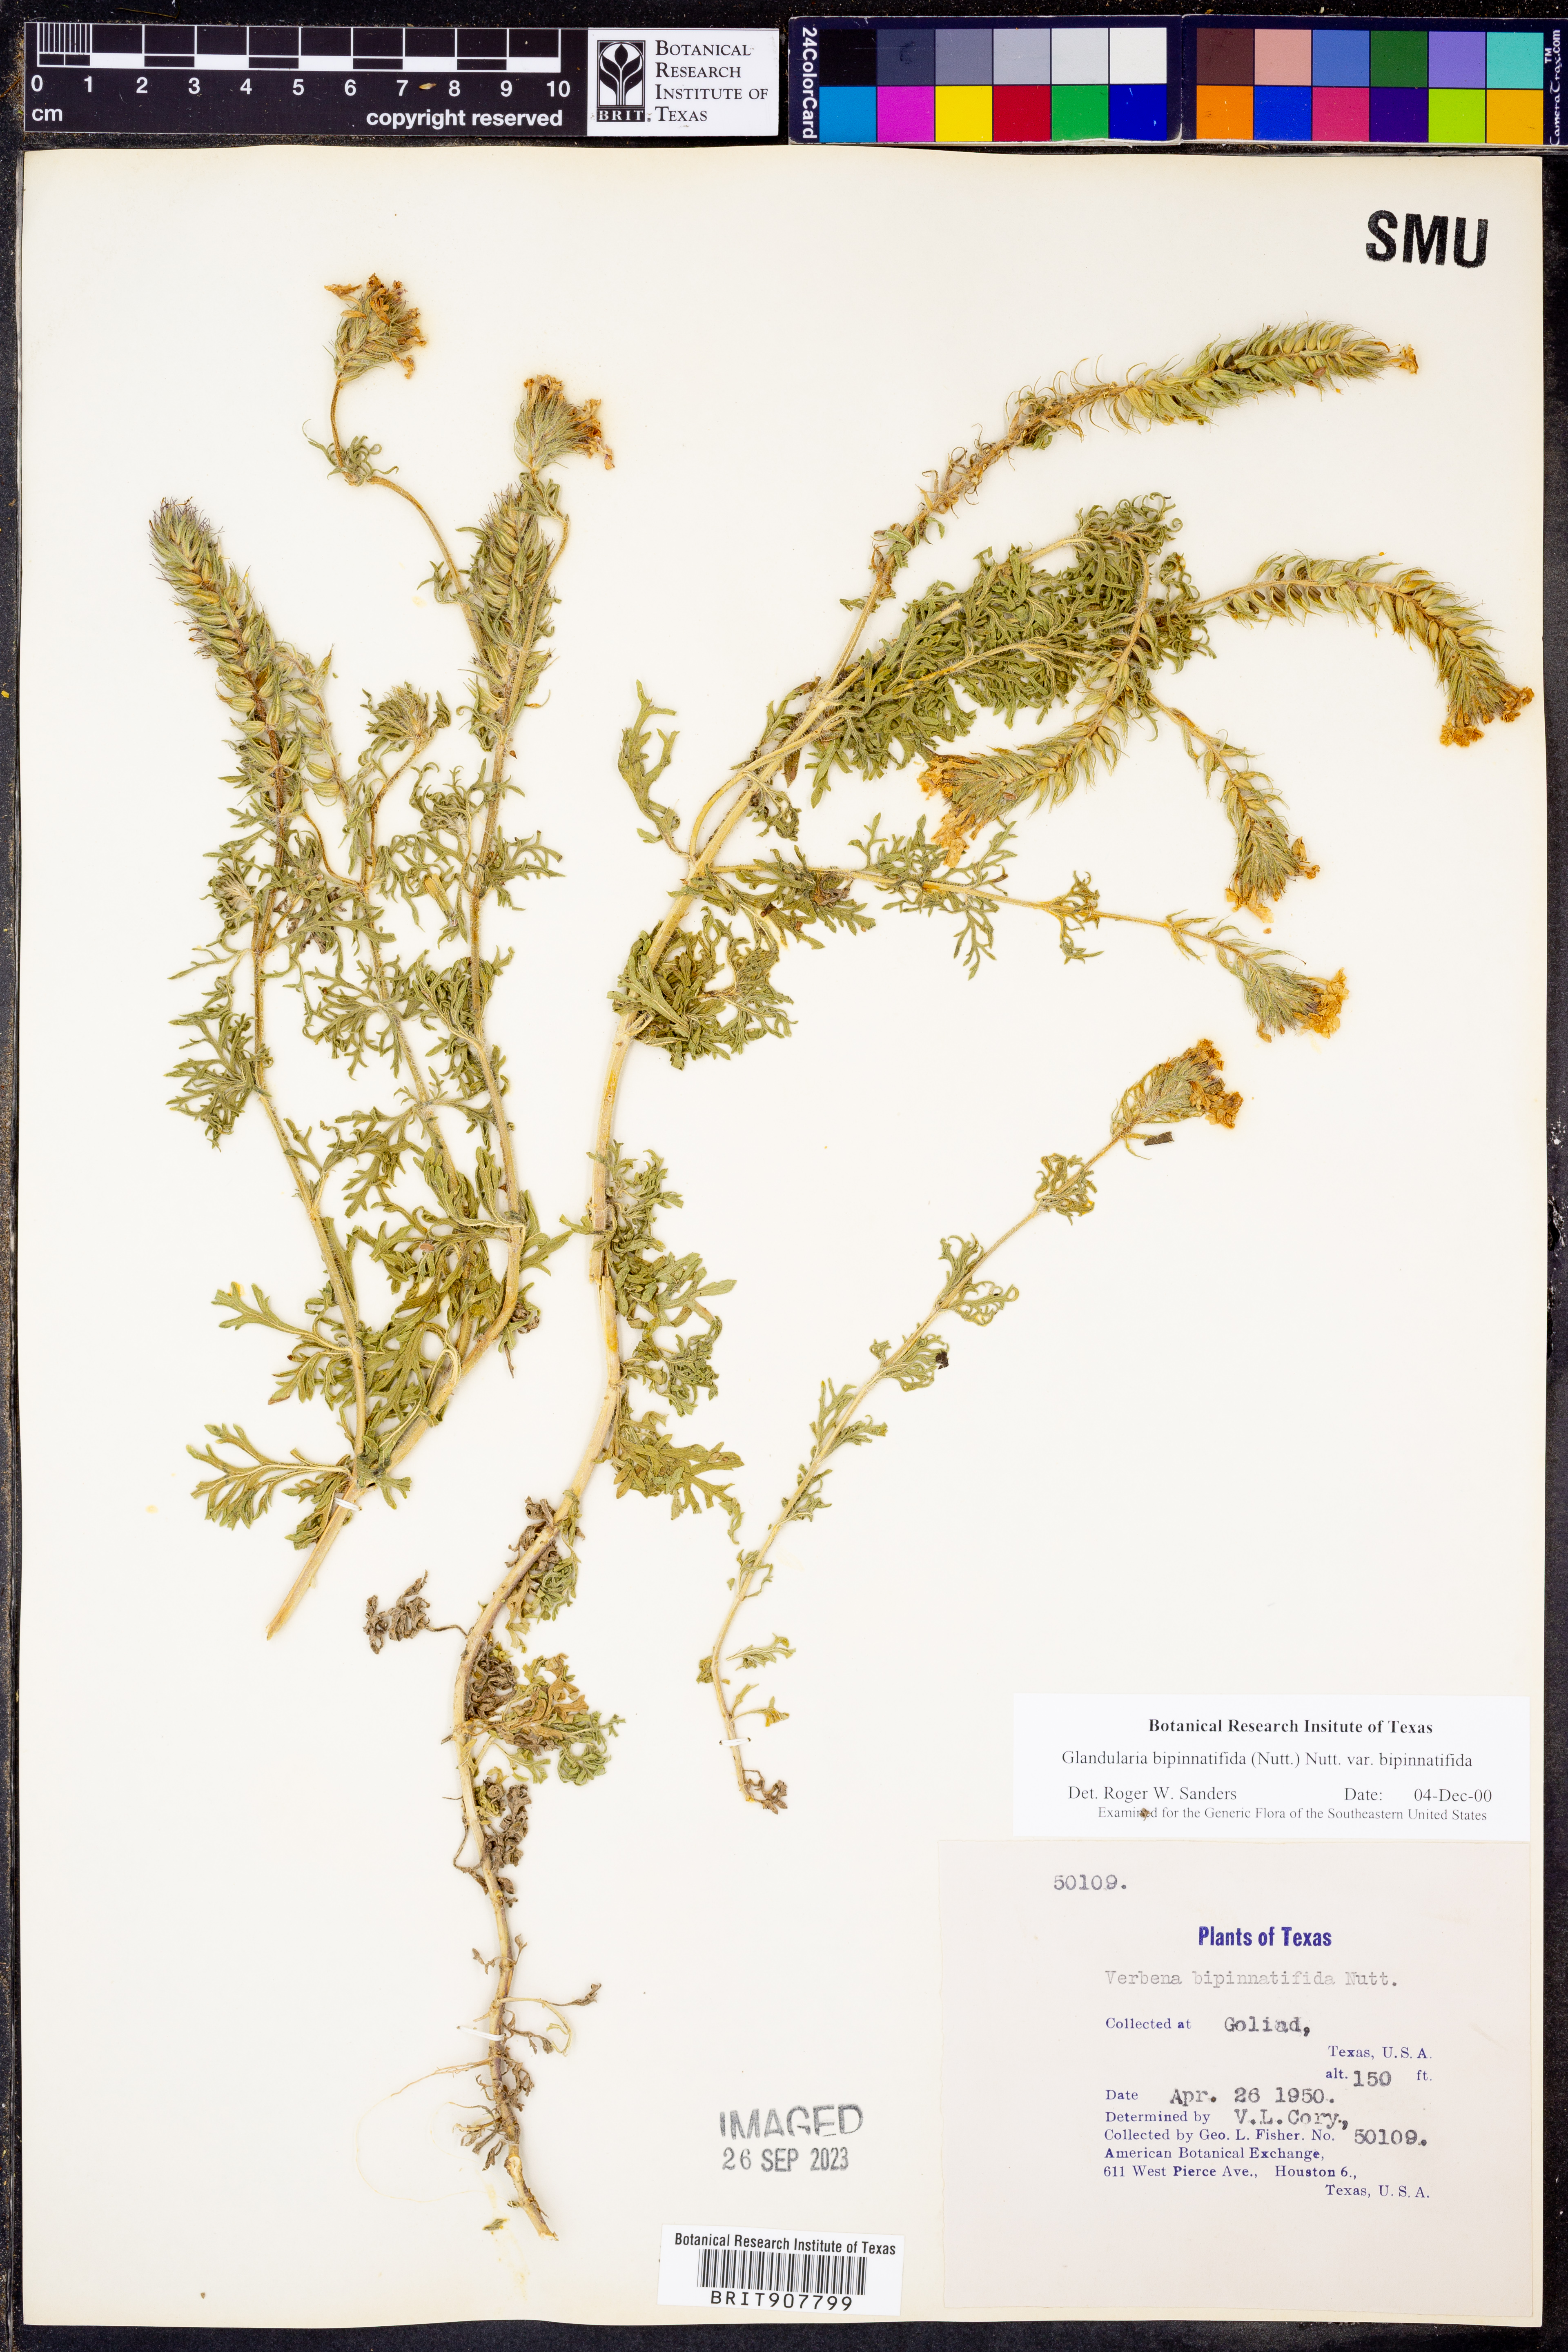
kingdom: Plantae
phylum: Tracheophyta
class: Magnoliopsida
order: Lamiales
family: Verbenaceae
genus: Verbena
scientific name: Verbena bipinnatifida
